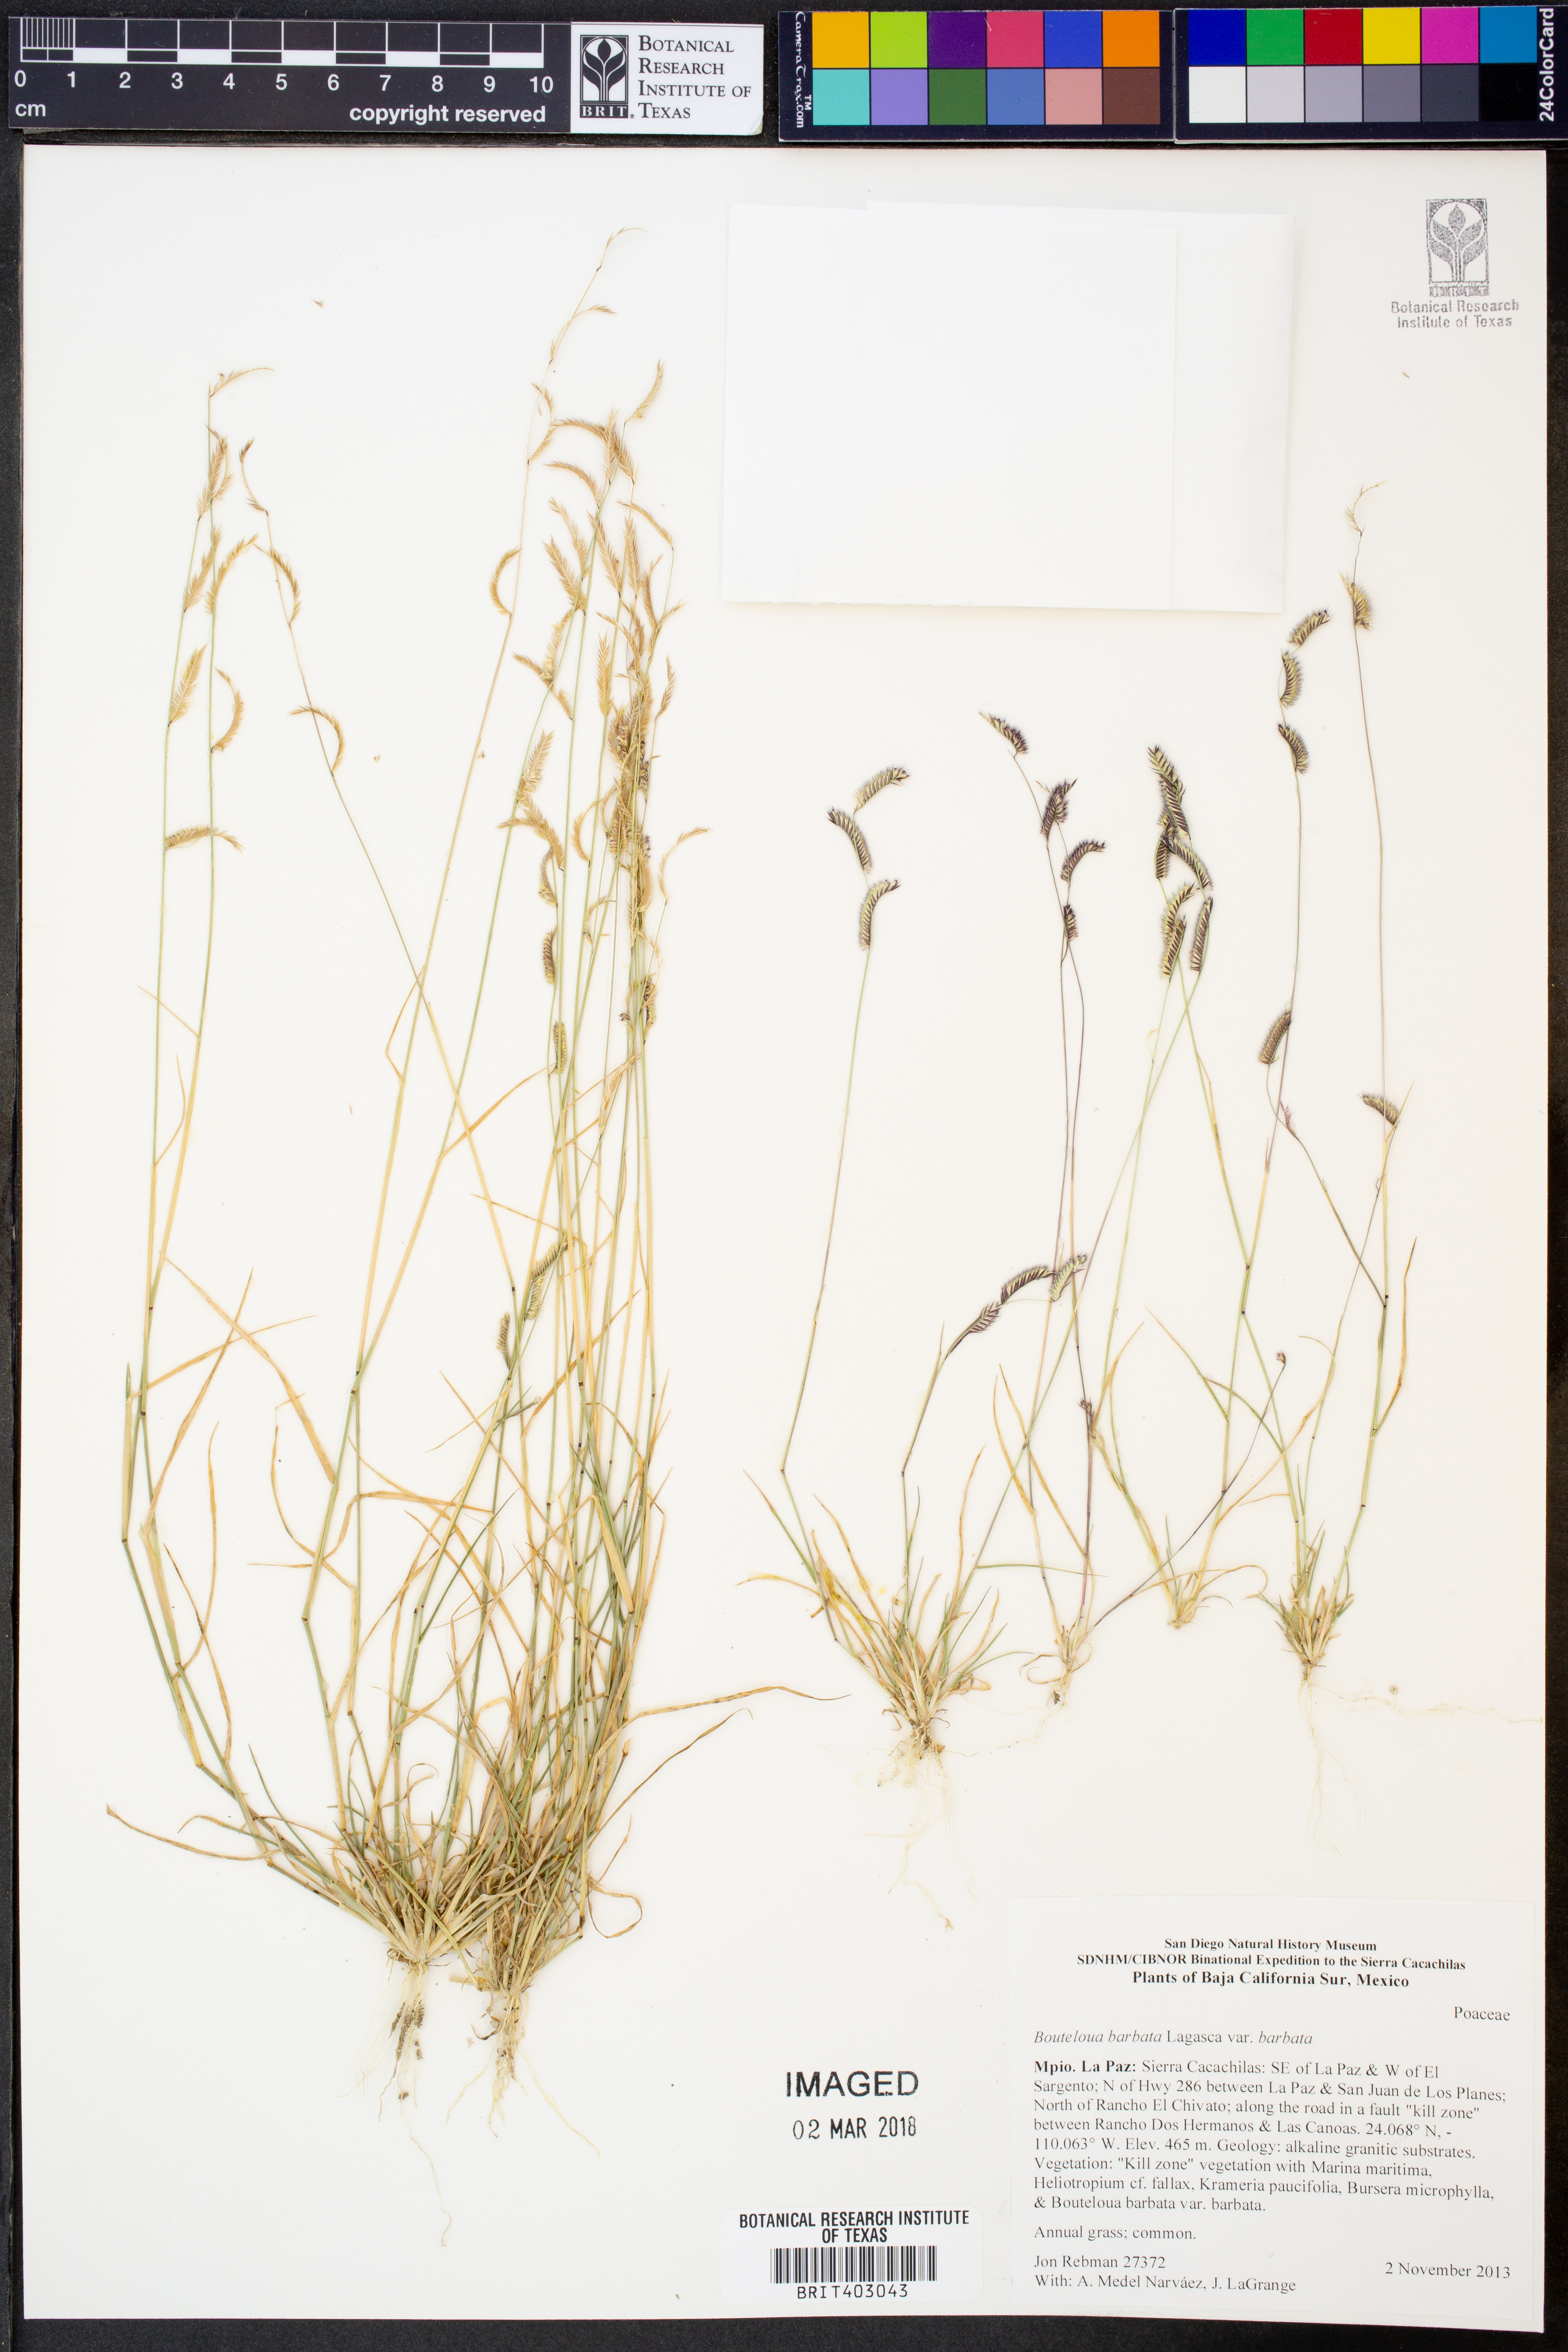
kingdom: Plantae
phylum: Tracheophyta
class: Liliopsida
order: Poales
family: Poaceae
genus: Bouteloua
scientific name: Bouteloua barbata
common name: Six-weeks grama
